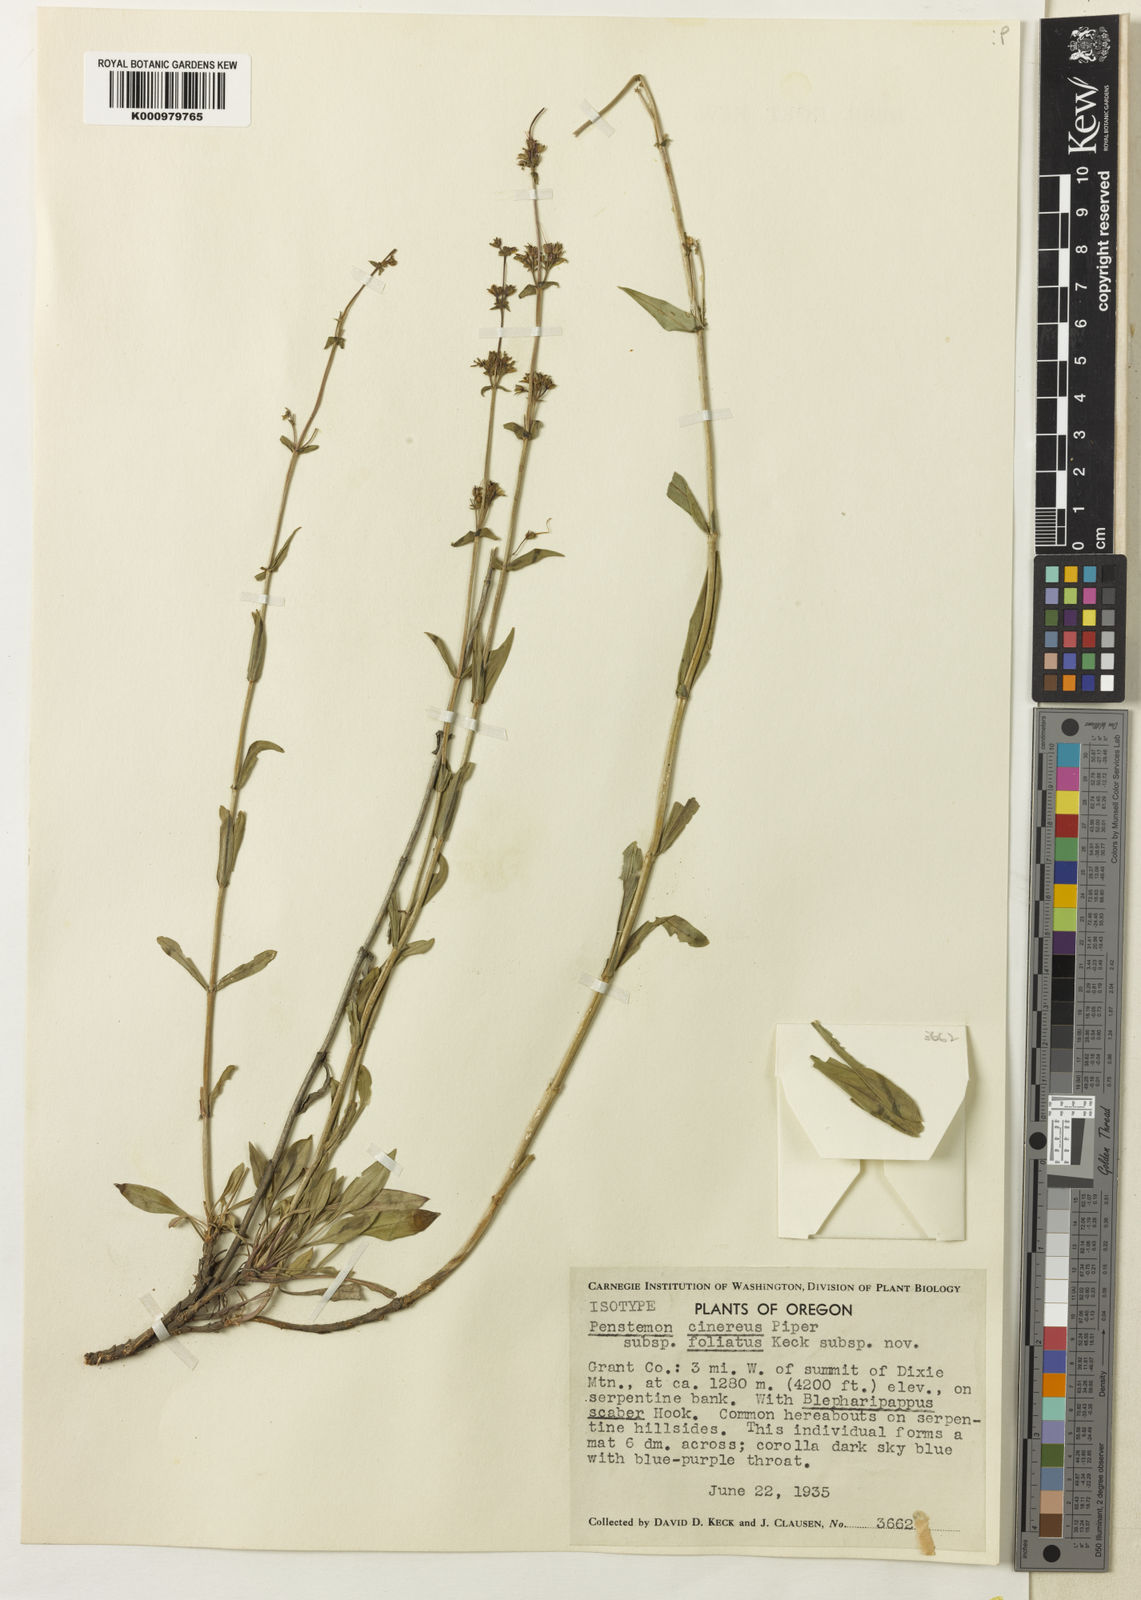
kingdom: Plantae
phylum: Tracheophyta
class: Magnoliopsida
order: Lamiales
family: Plantaginaceae
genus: Penstemon
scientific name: Penstemon
